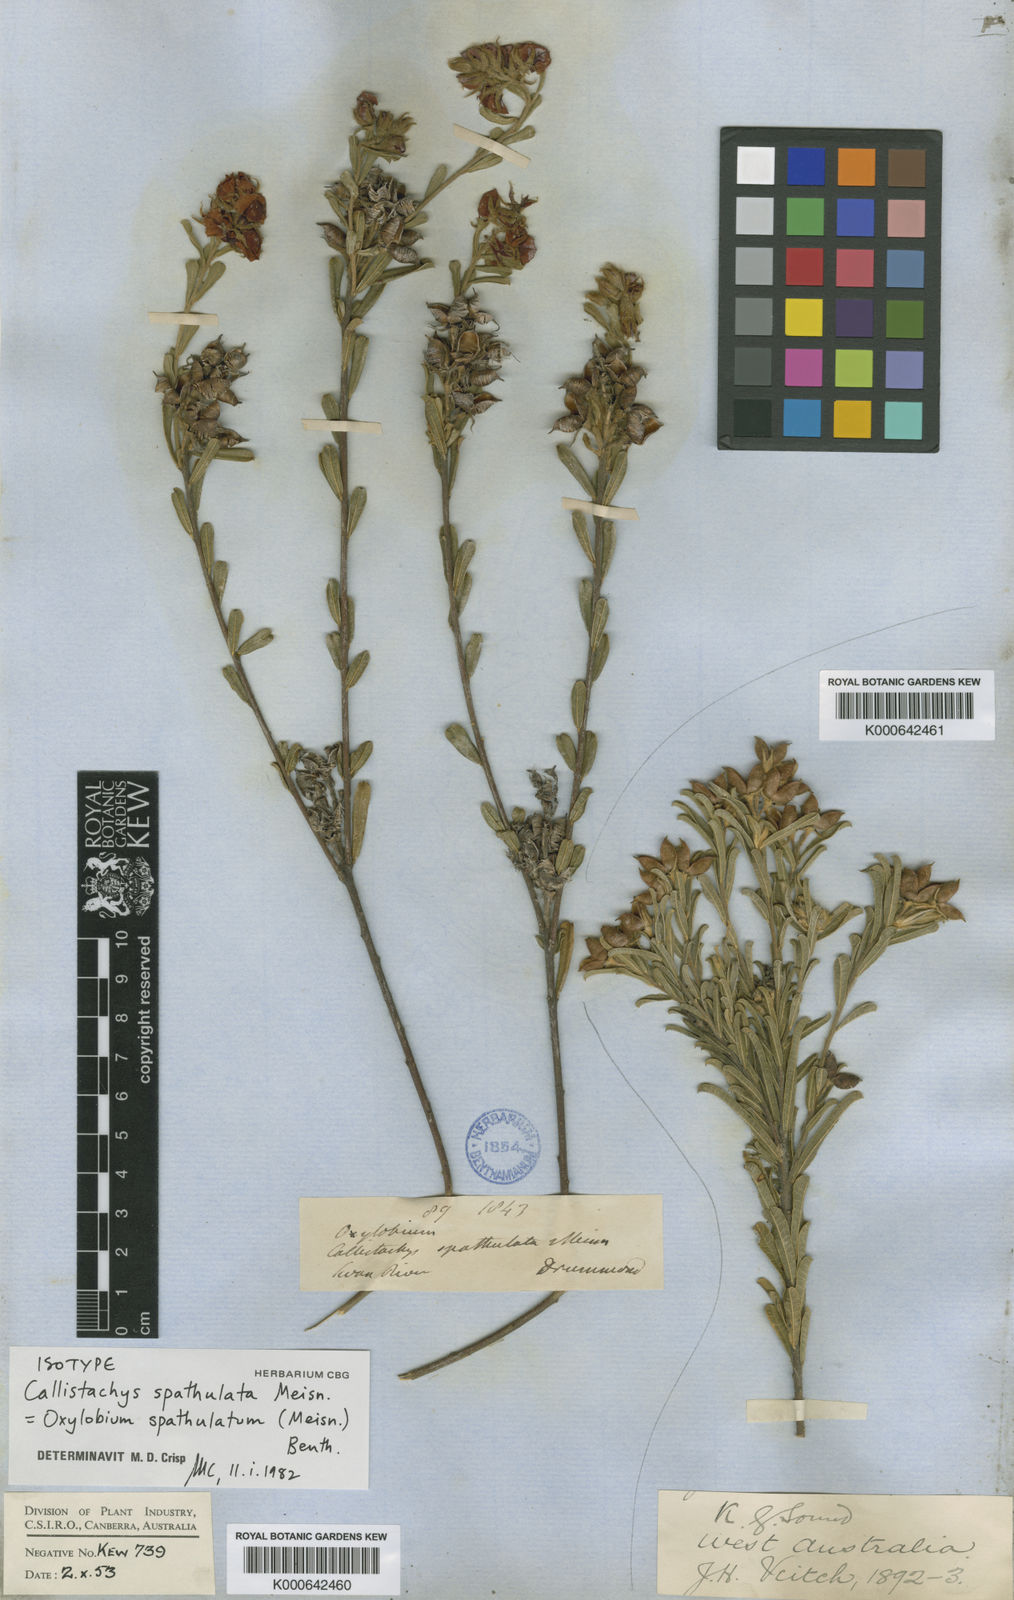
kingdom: Plantae
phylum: Tracheophyta
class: Magnoliopsida
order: Fabales
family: Fabaceae
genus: Chorizema
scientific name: Chorizema spathulatum
